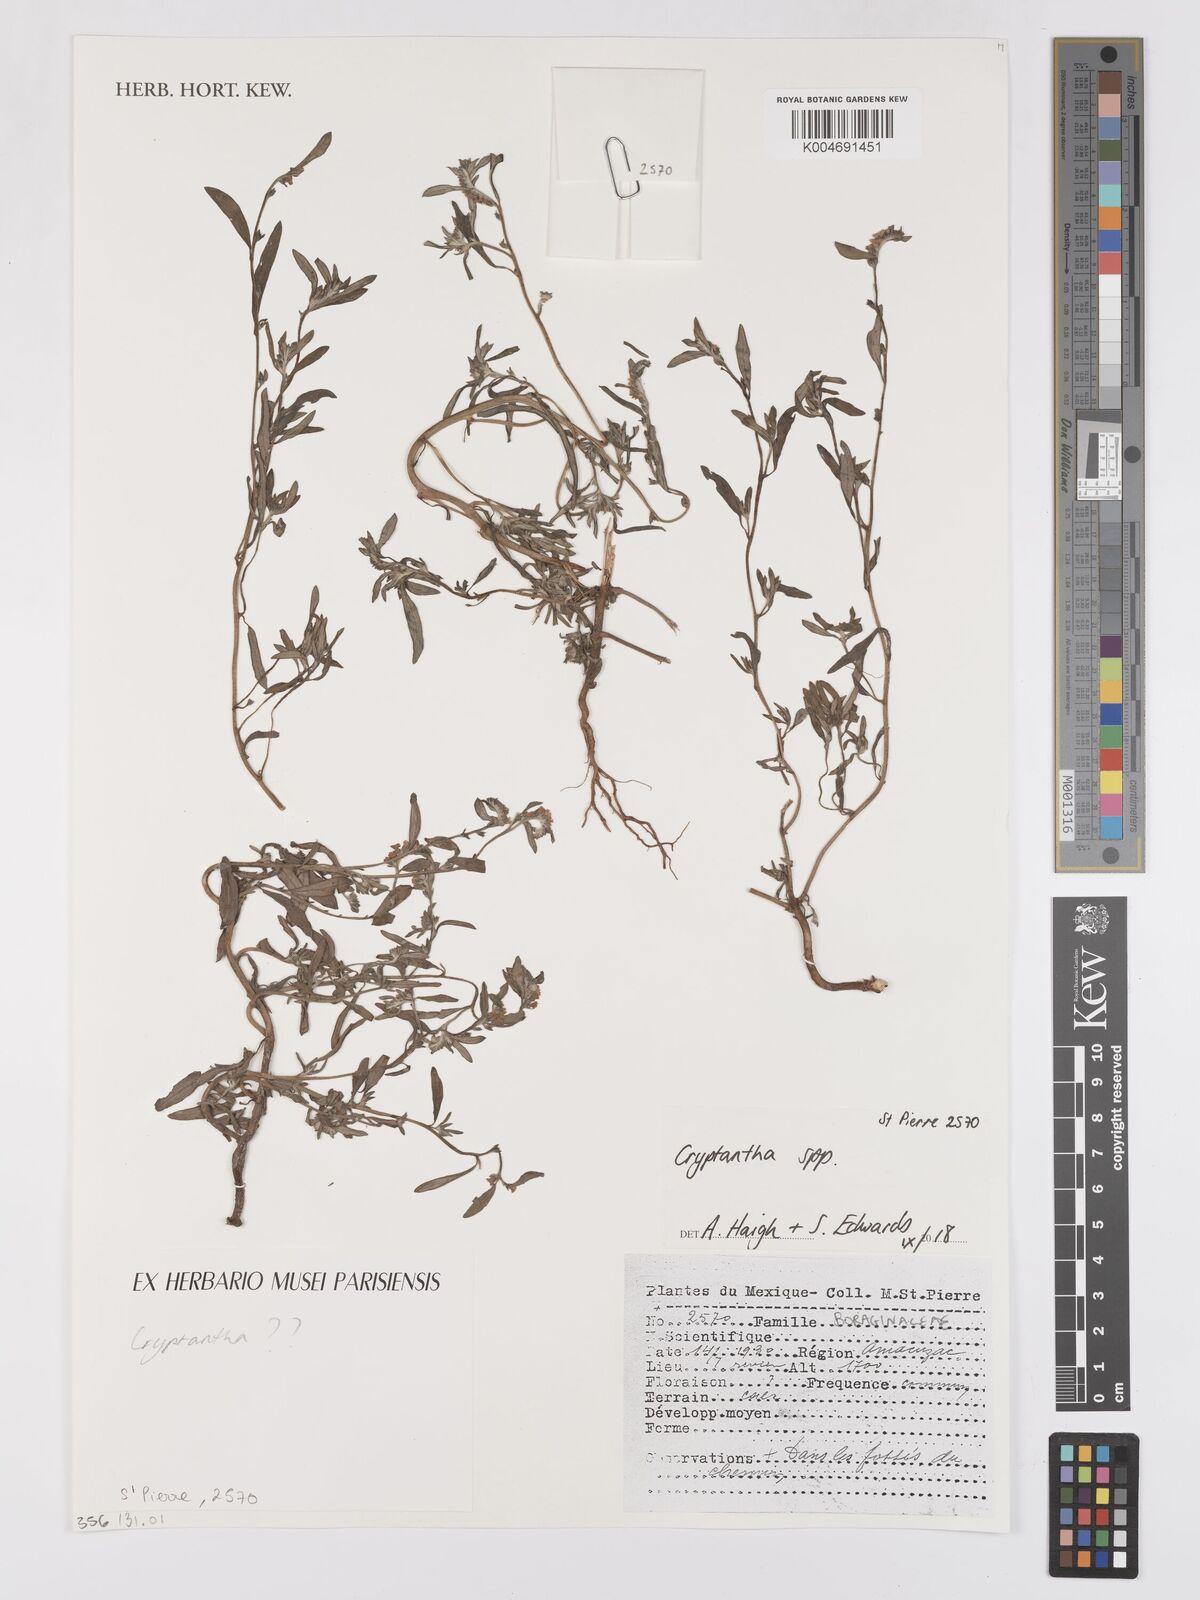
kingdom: Plantae
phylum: Tracheophyta
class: Magnoliopsida
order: Boraginales
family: Boraginaceae
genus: Cryptantha
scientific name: Cryptantha
